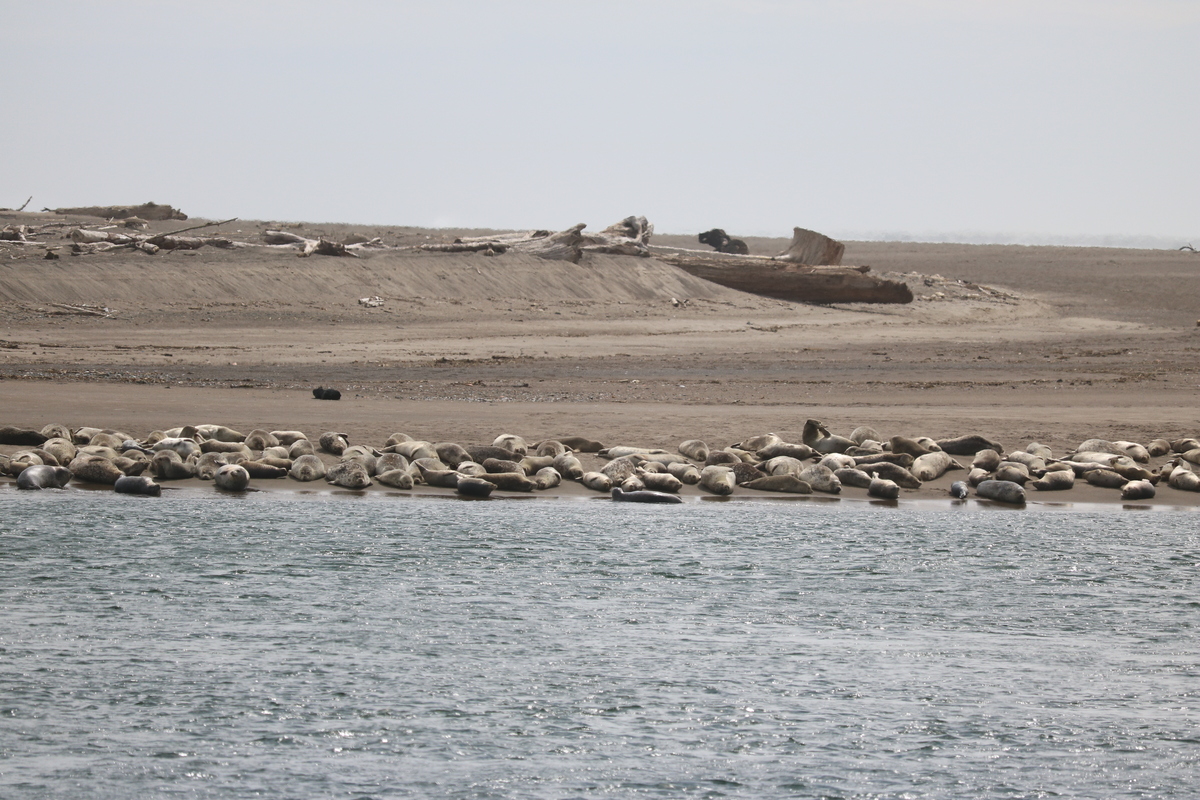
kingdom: Animalia
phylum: Chordata
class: Mammalia
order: Carnivora
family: Phocidae
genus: Phoca
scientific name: Phoca vitulina
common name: Harbor seal
